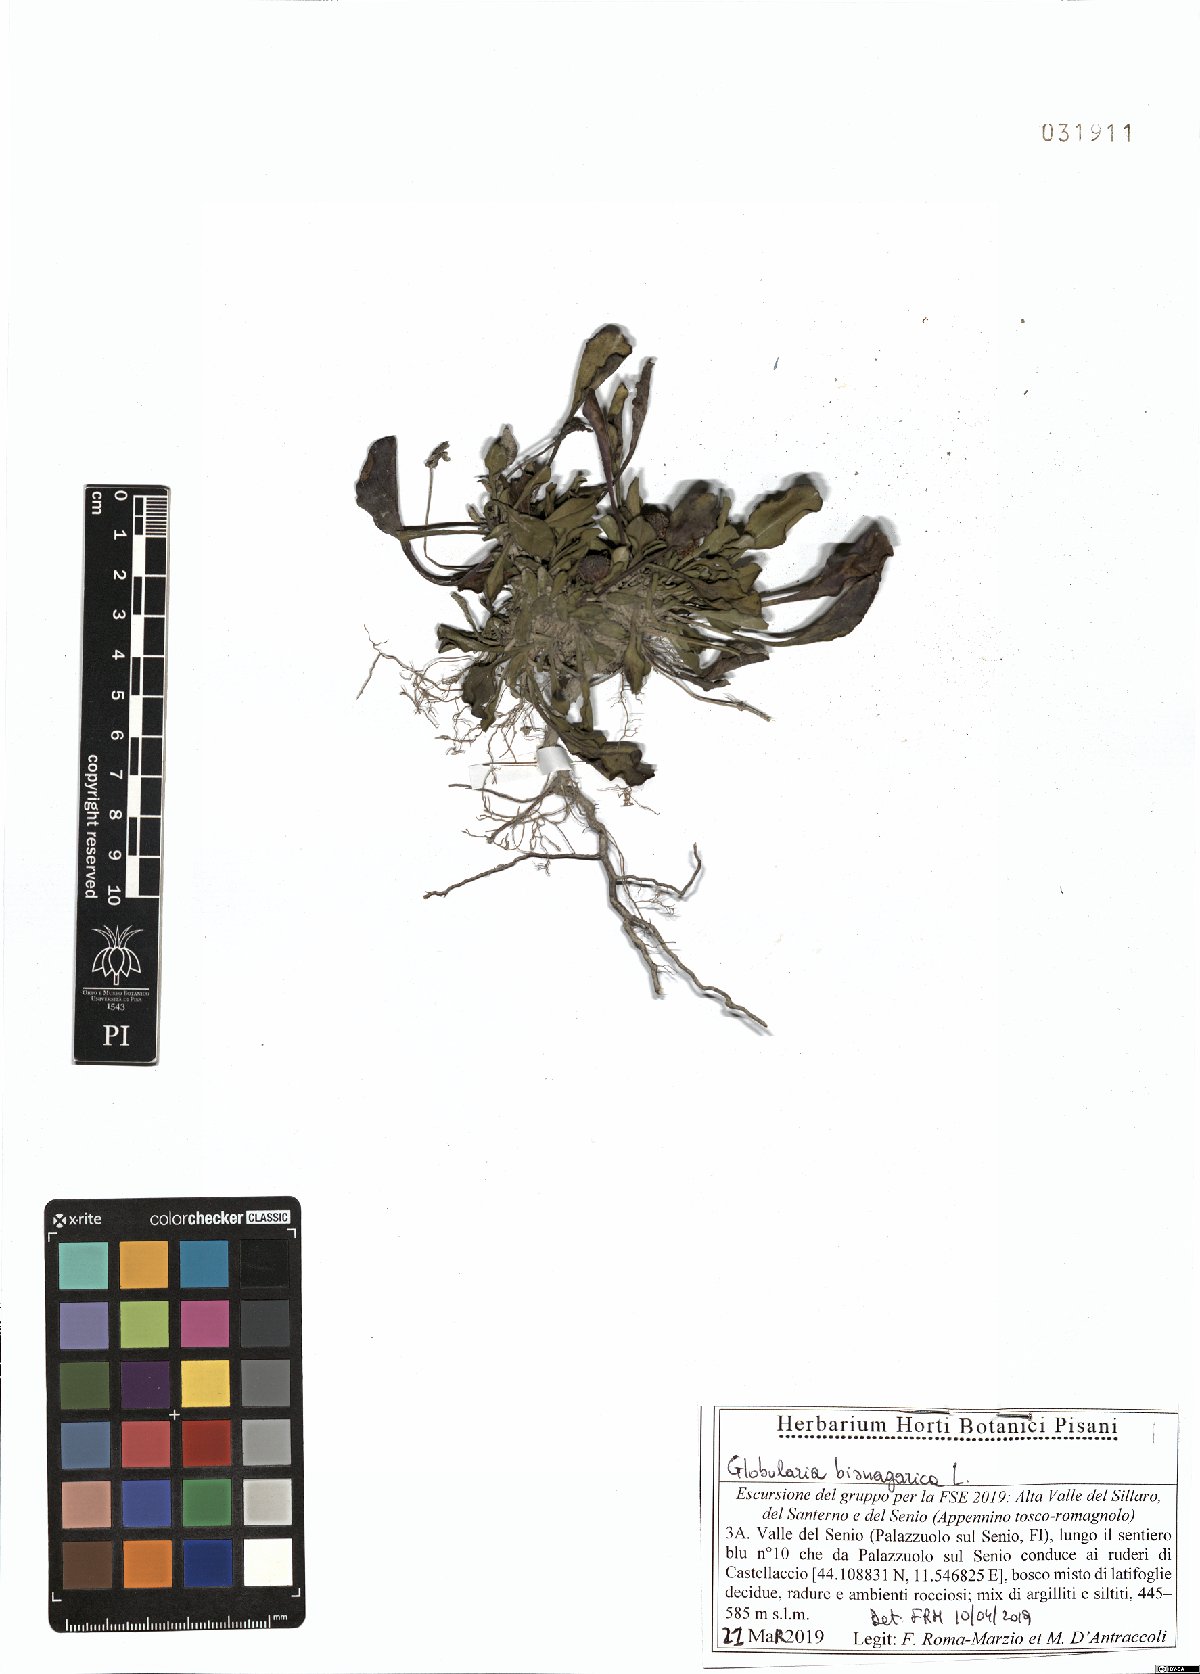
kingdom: Plantae
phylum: Tracheophyta
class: Magnoliopsida
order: Lamiales
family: Plantaginaceae
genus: Globularia
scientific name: Globularia bisnagarica
